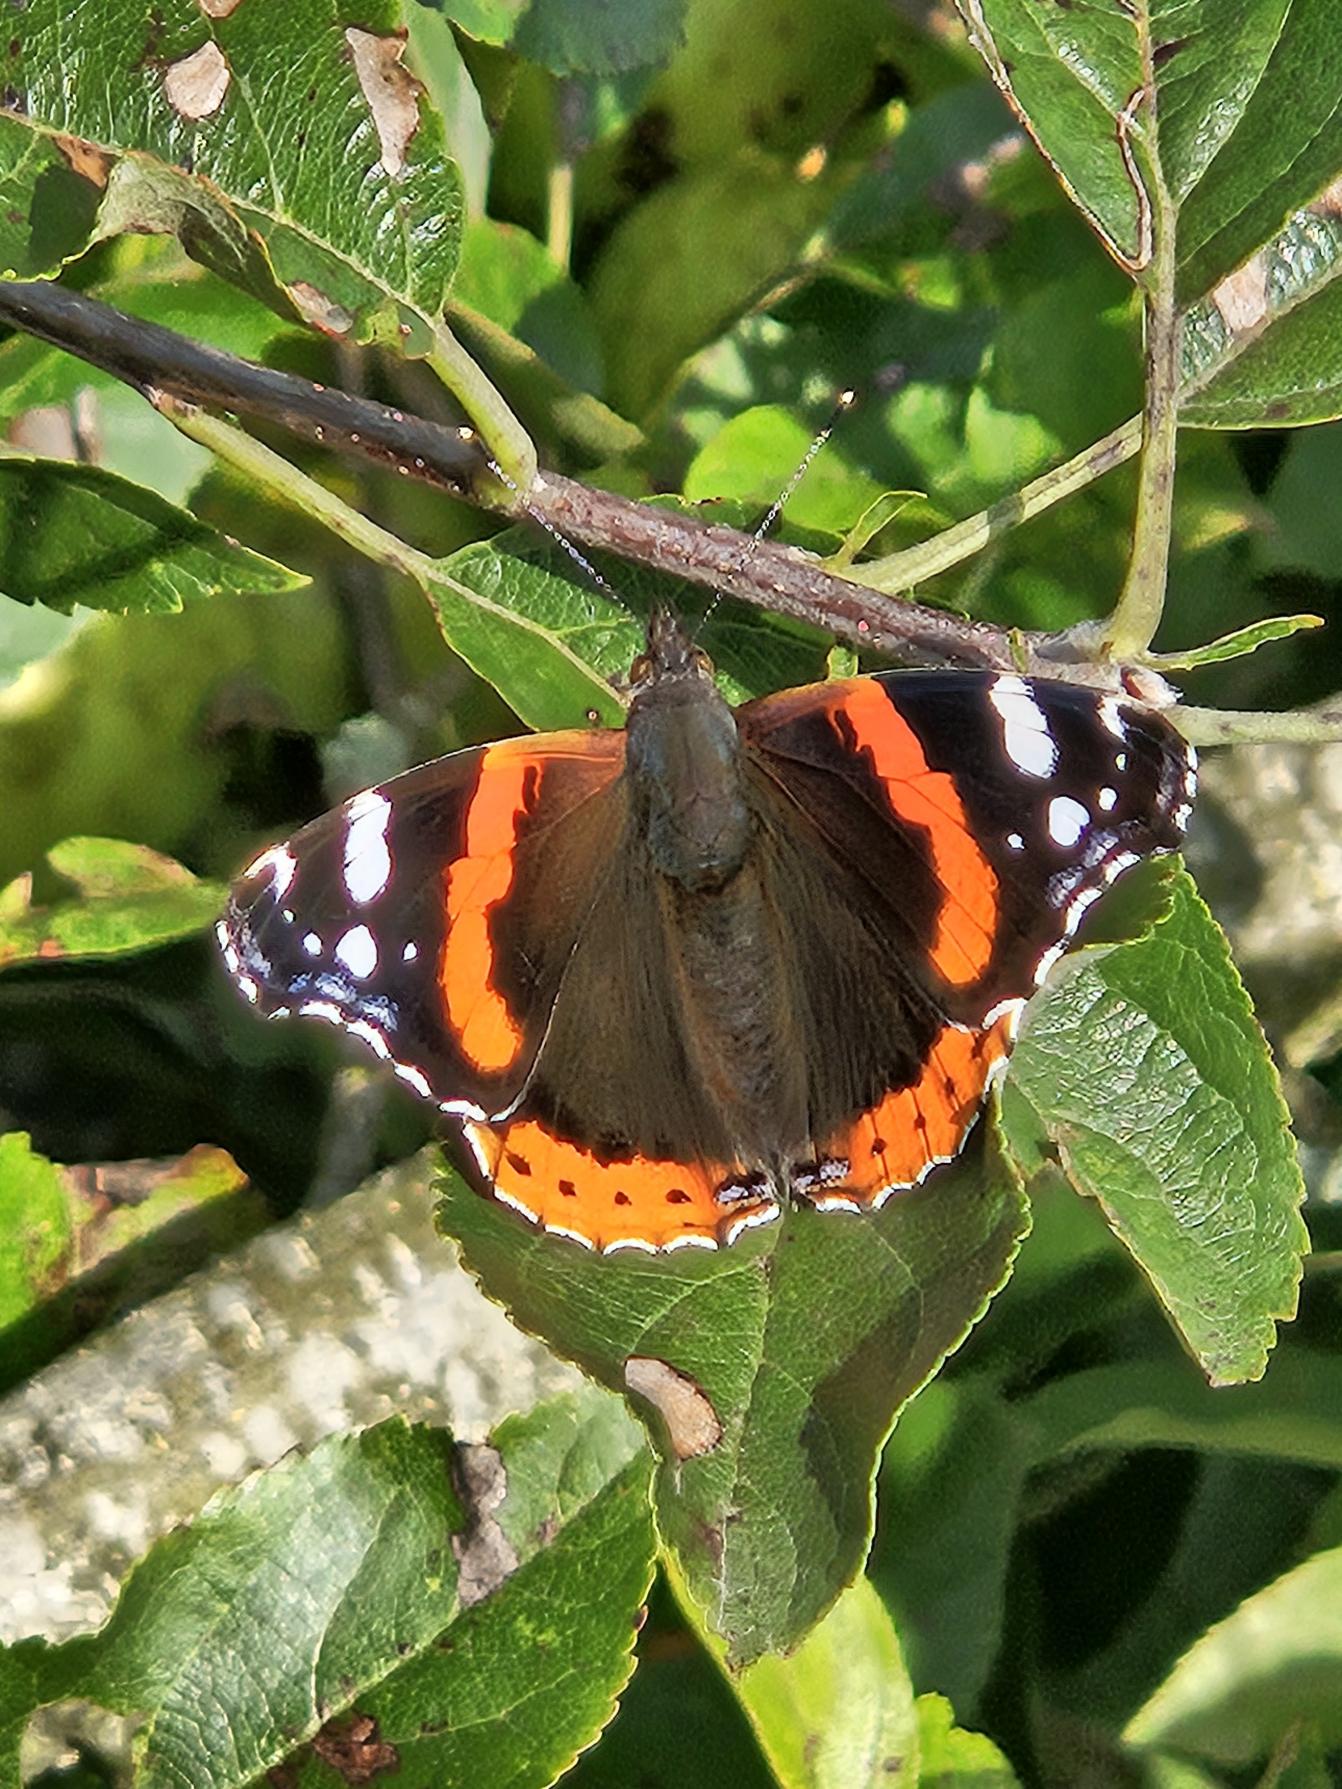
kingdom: Animalia
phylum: Arthropoda
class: Insecta
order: Lepidoptera
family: Nymphalidae
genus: Vanessa
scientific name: Vanessa atalanta
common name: Admiral
